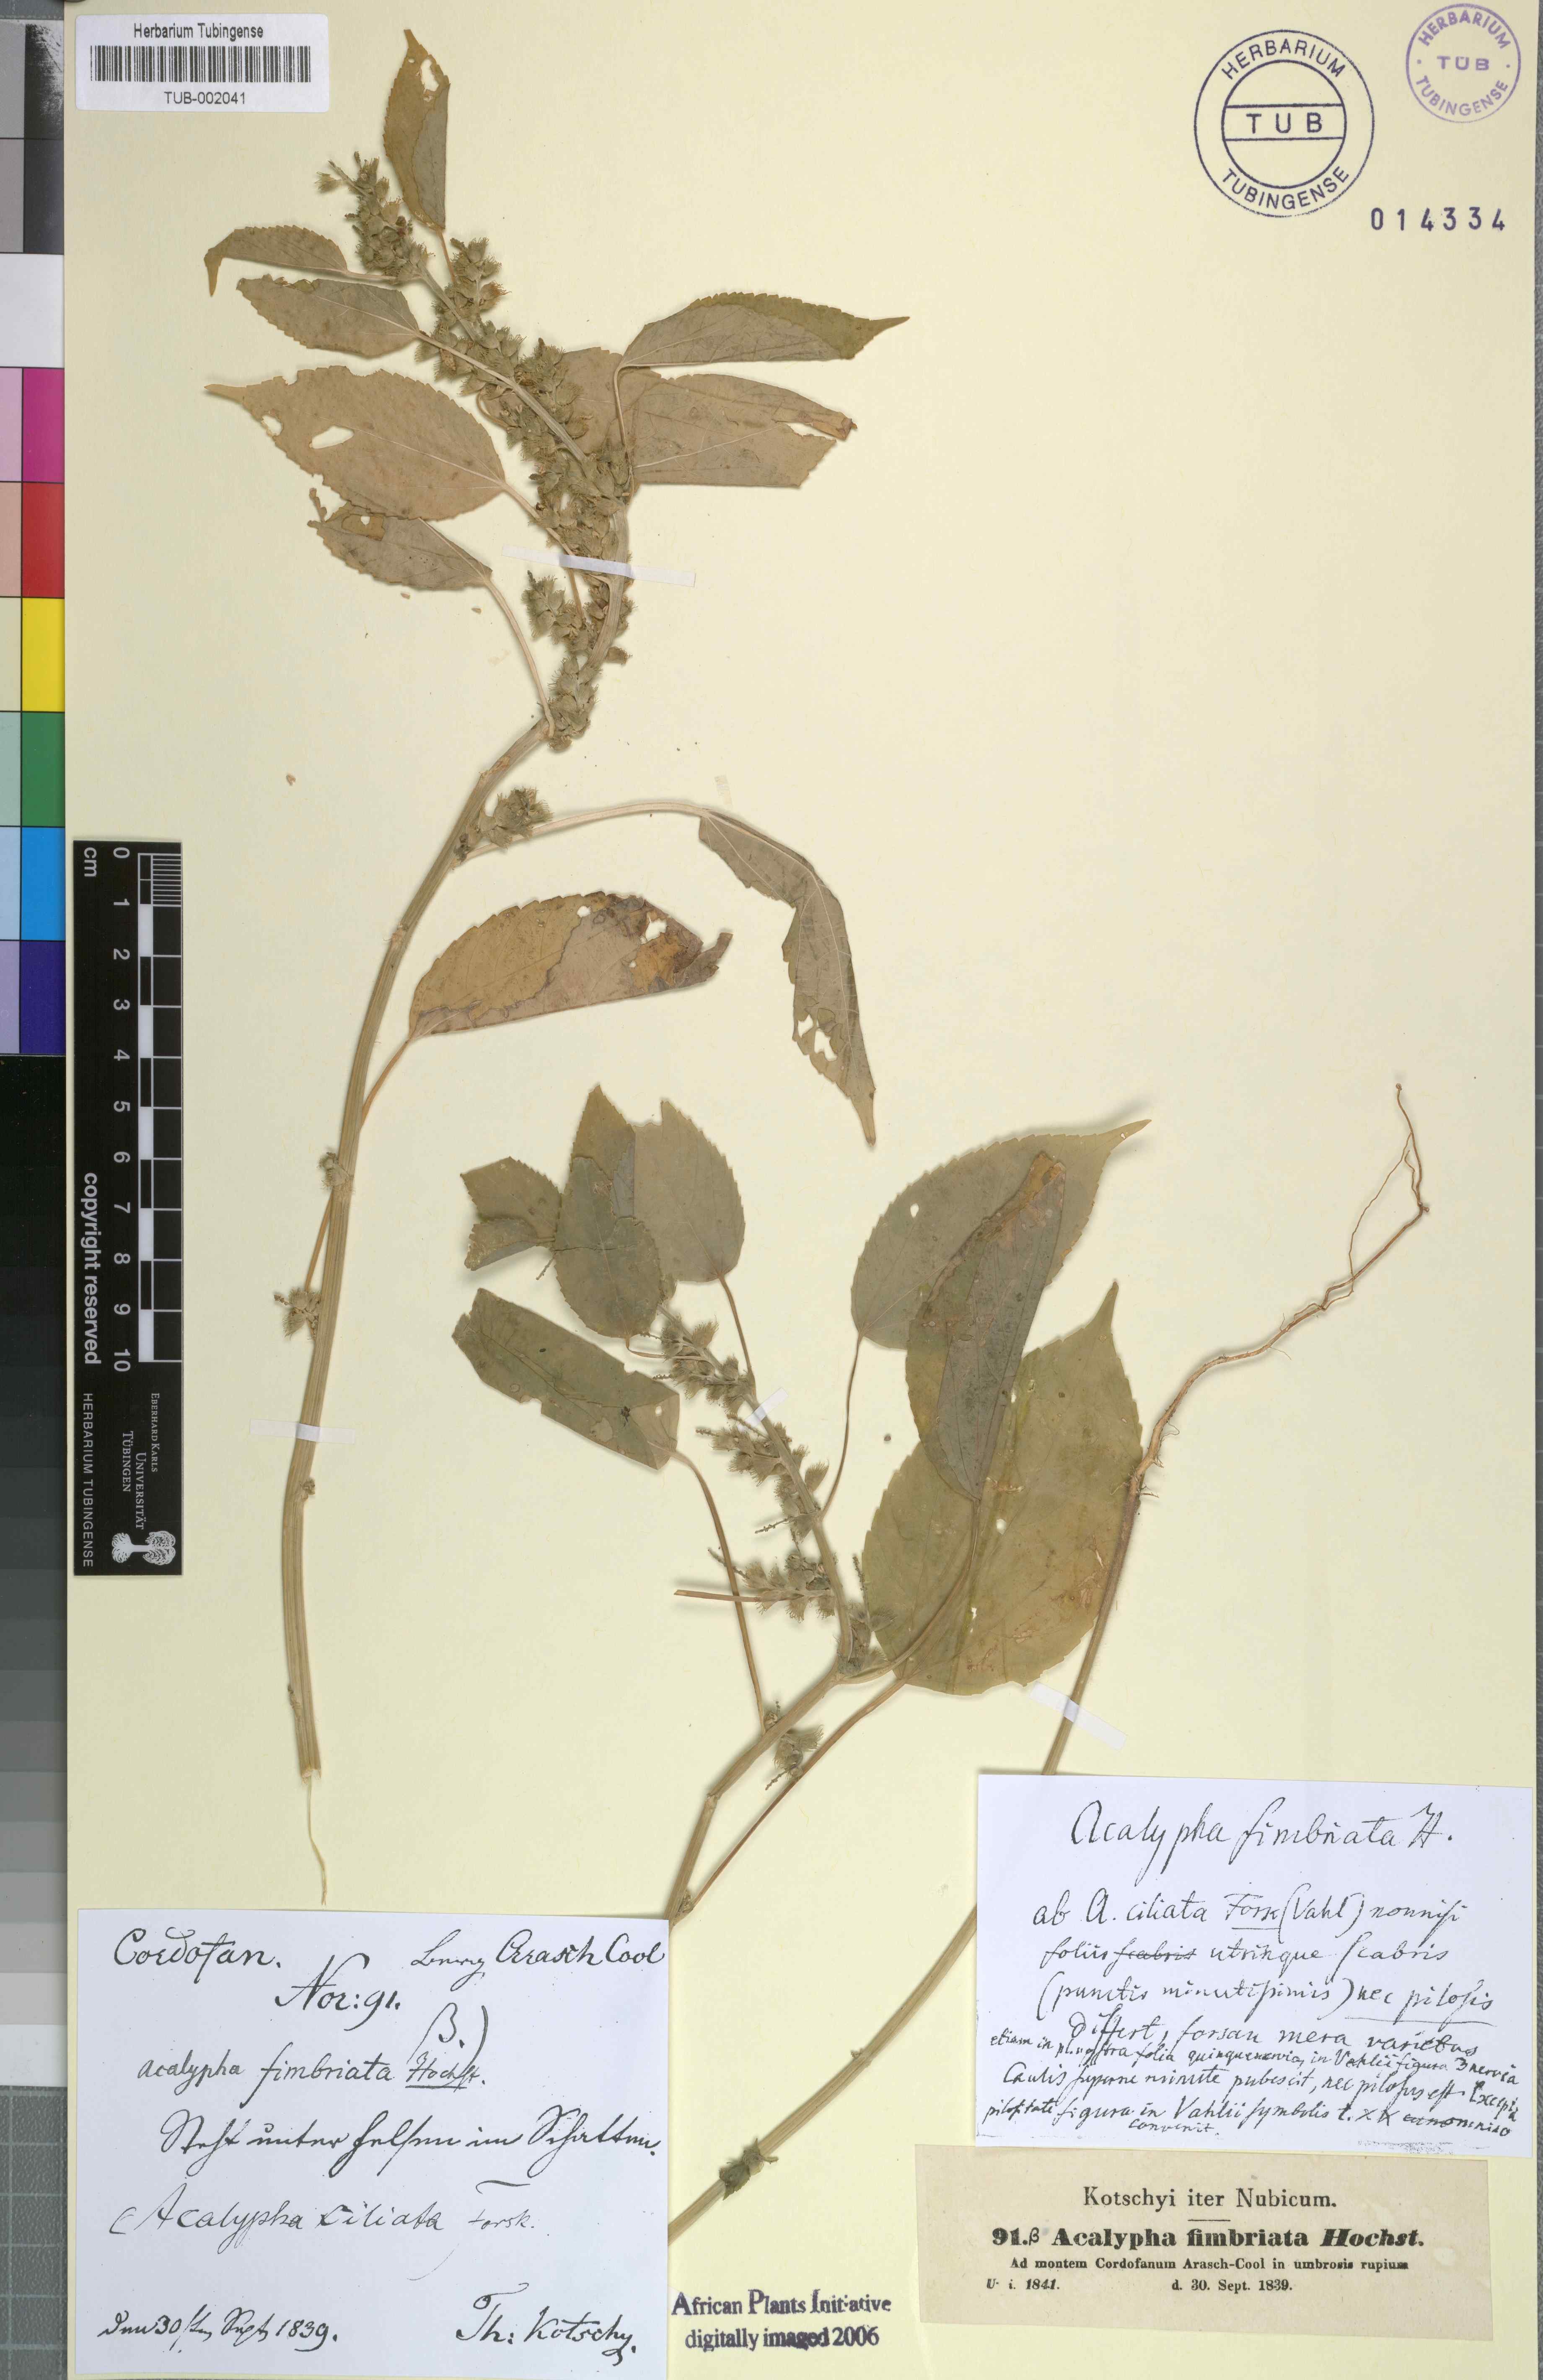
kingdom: Plantae
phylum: Tracheophyta
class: Magnoliopsida
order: Malpighiales
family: Euphorbiaceae
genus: Acalypha
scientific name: Acalypha fimbriata
